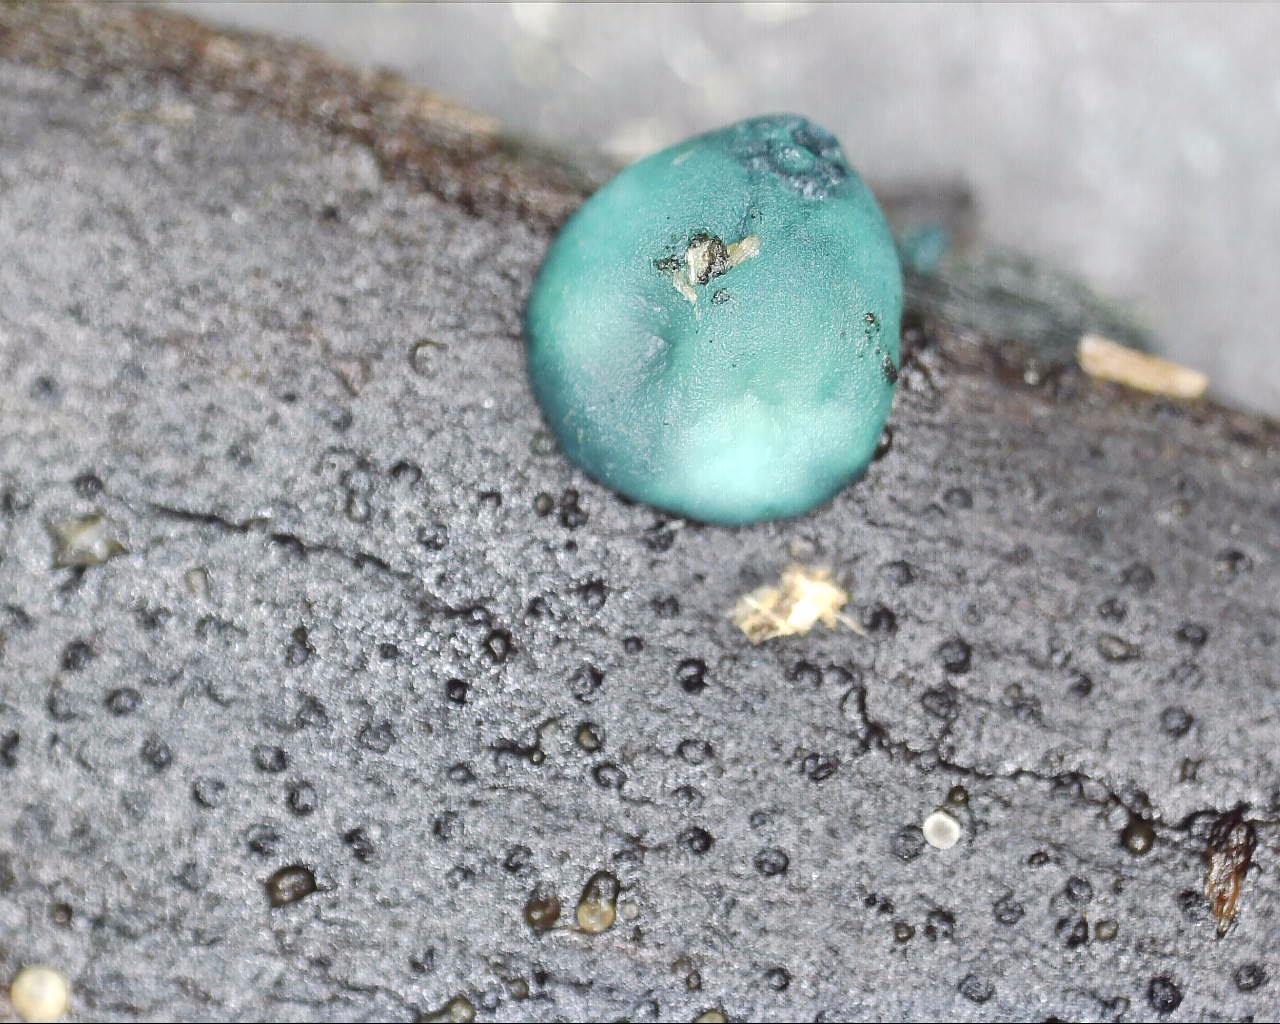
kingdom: Fungi
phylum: Ascomycota
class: Leotiomycetes
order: Helotiales
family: Chlorociboriaceae
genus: Chlorociboria
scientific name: Chlorociboria aeruginascens
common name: almindelig grønskive
